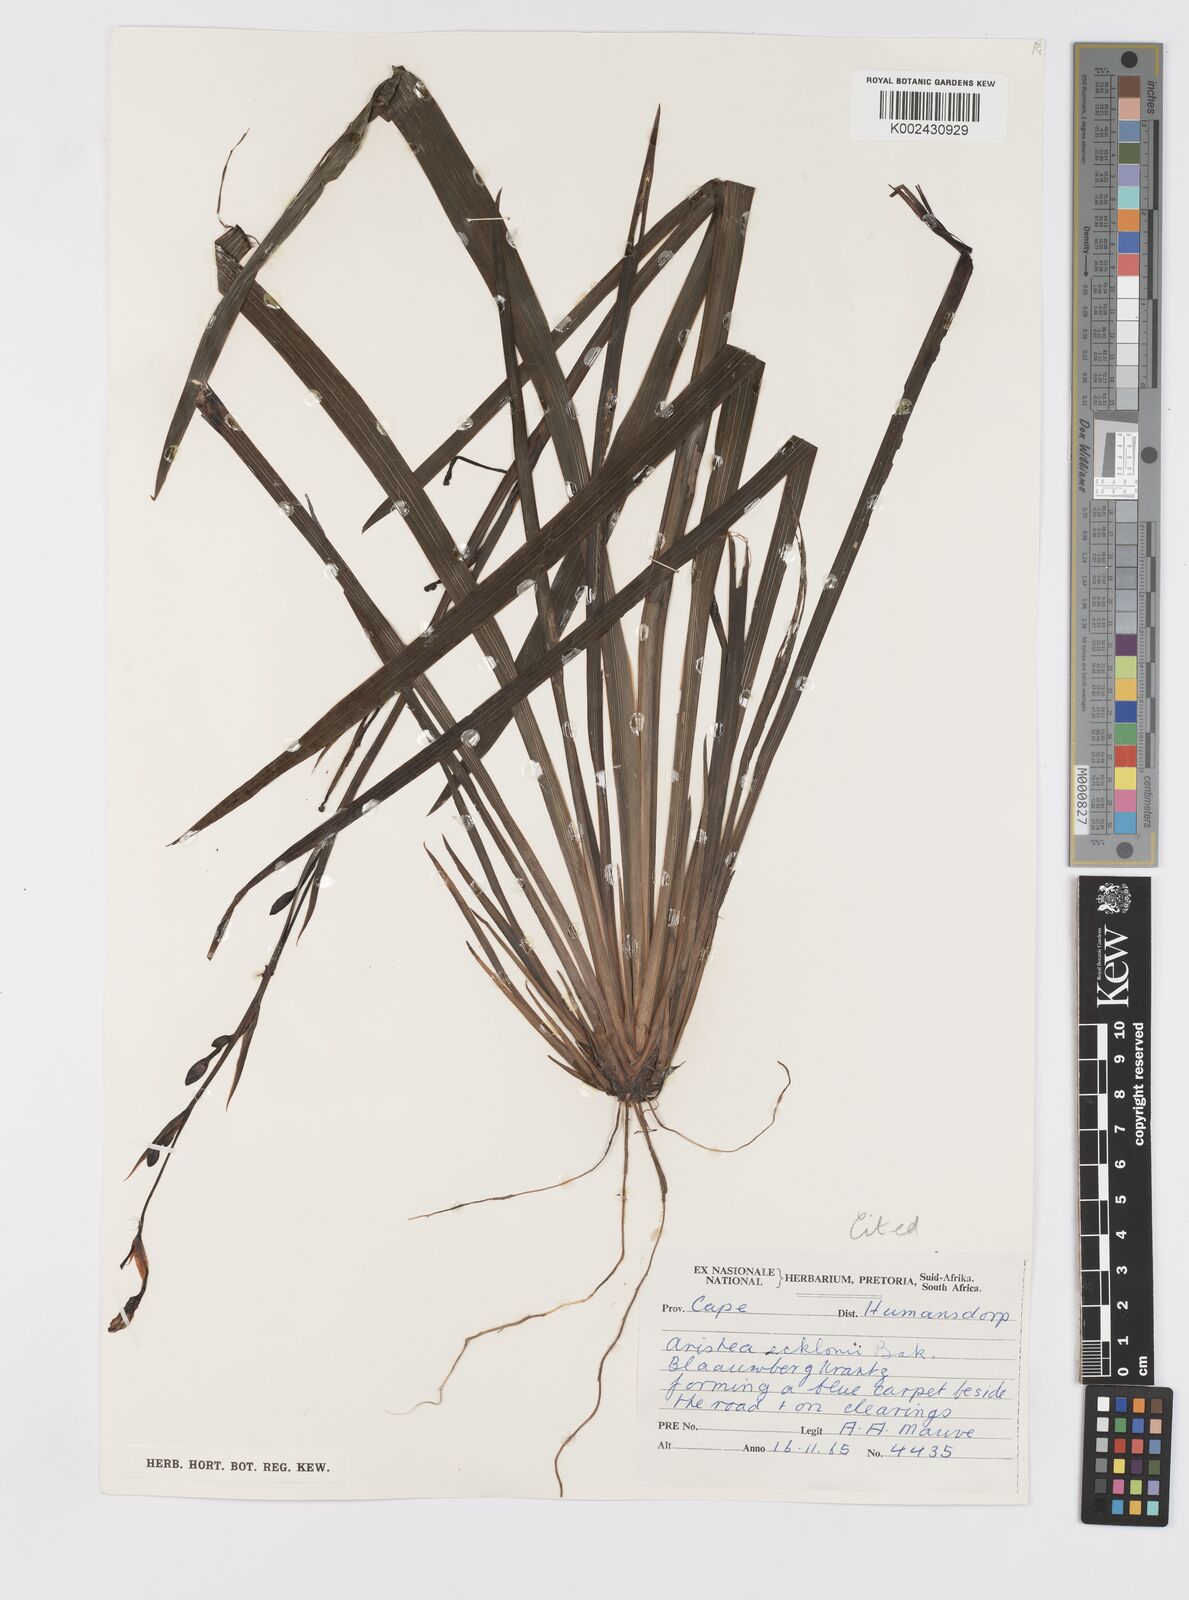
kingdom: Plantae
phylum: Tracheophyta
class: Liliopsida
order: Asparagales
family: Iridaceae
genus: Aristea
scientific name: Aristea ecklonii
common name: Blue corn-lily
